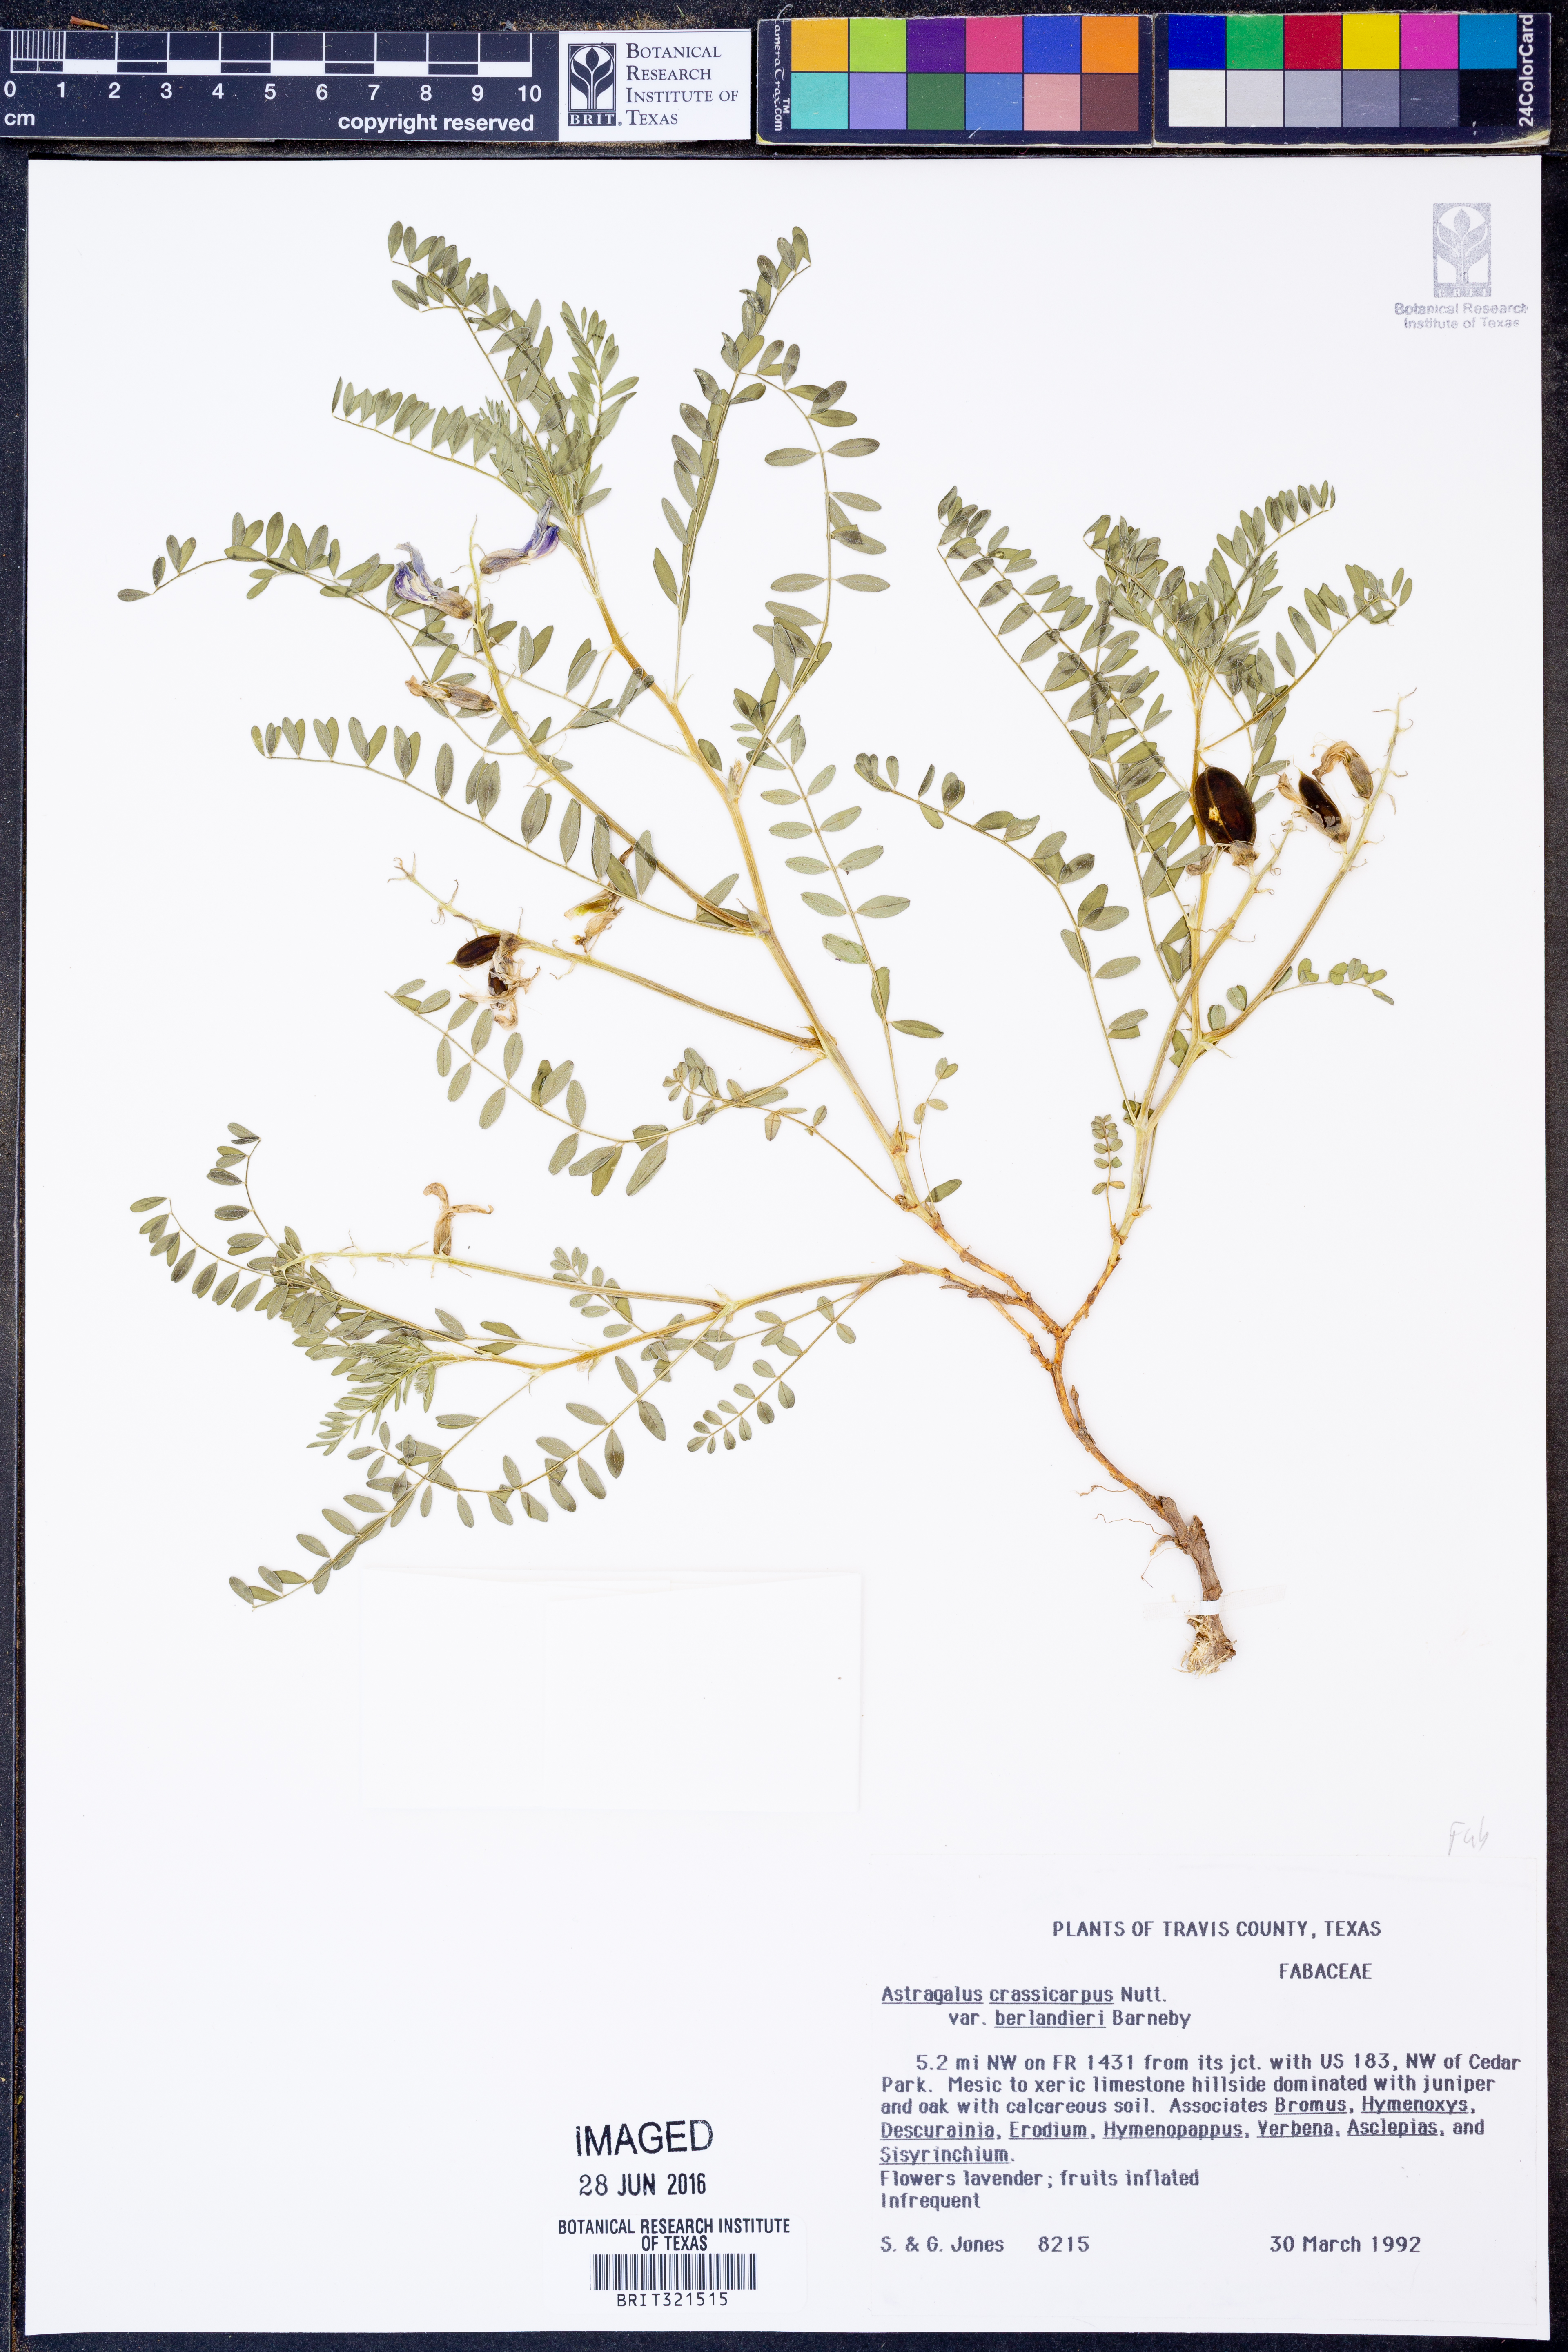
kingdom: Plantae
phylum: Tracheophyta
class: Magnoliopsida
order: Fabales
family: Fabaceae
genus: Astragalus
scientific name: Astragalus crassicarpus
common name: Ground-plum milk-vetch
